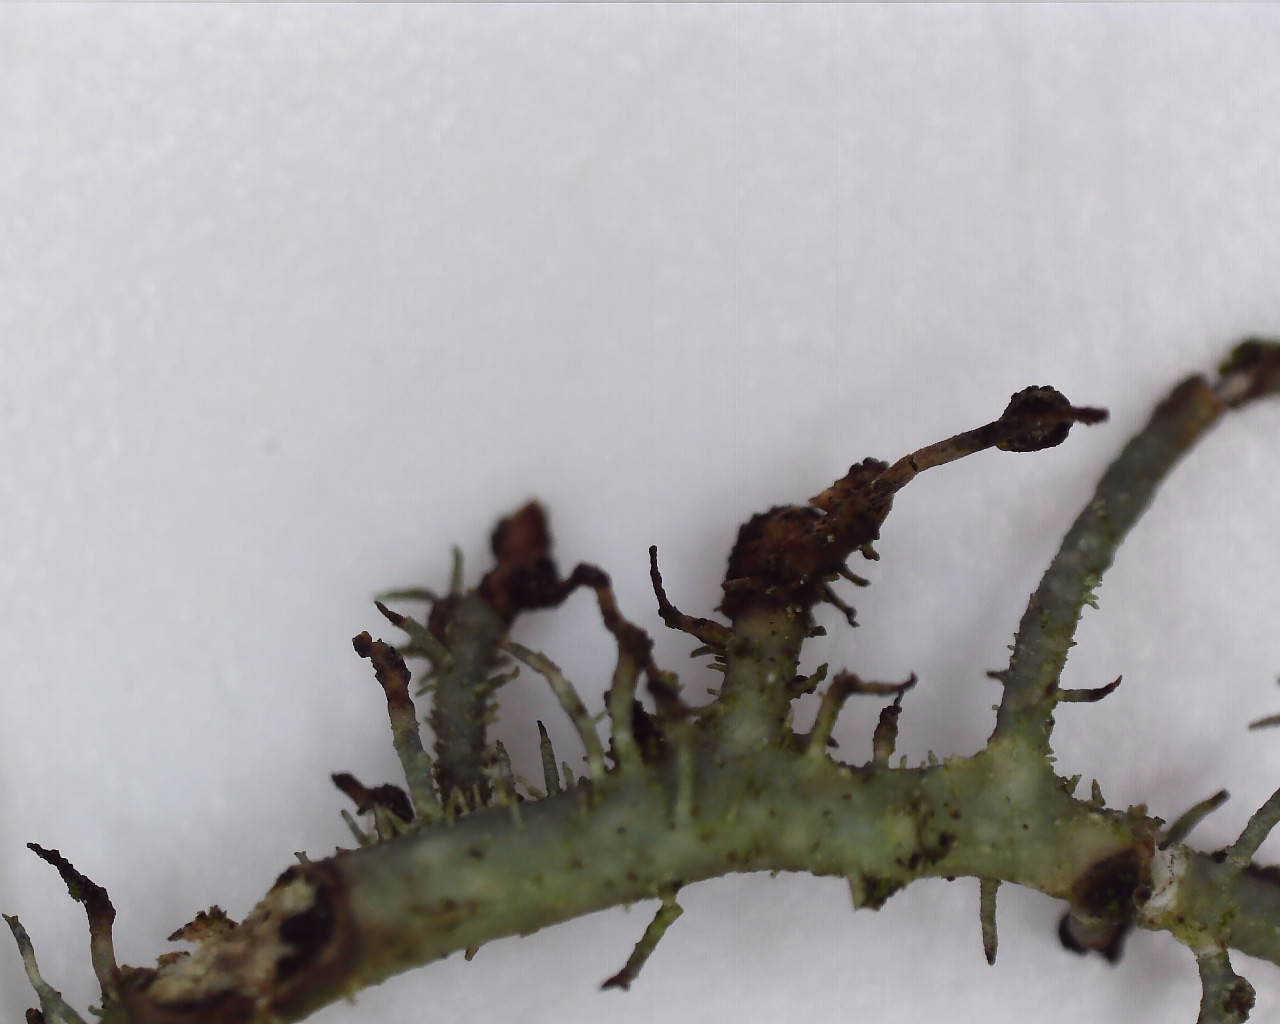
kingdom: Fungi
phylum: Basidiomycota
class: Tremellomycetes
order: Tremellales
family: Bulleraceae
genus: Biatoropsis
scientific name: Biatoropsis usnearum
